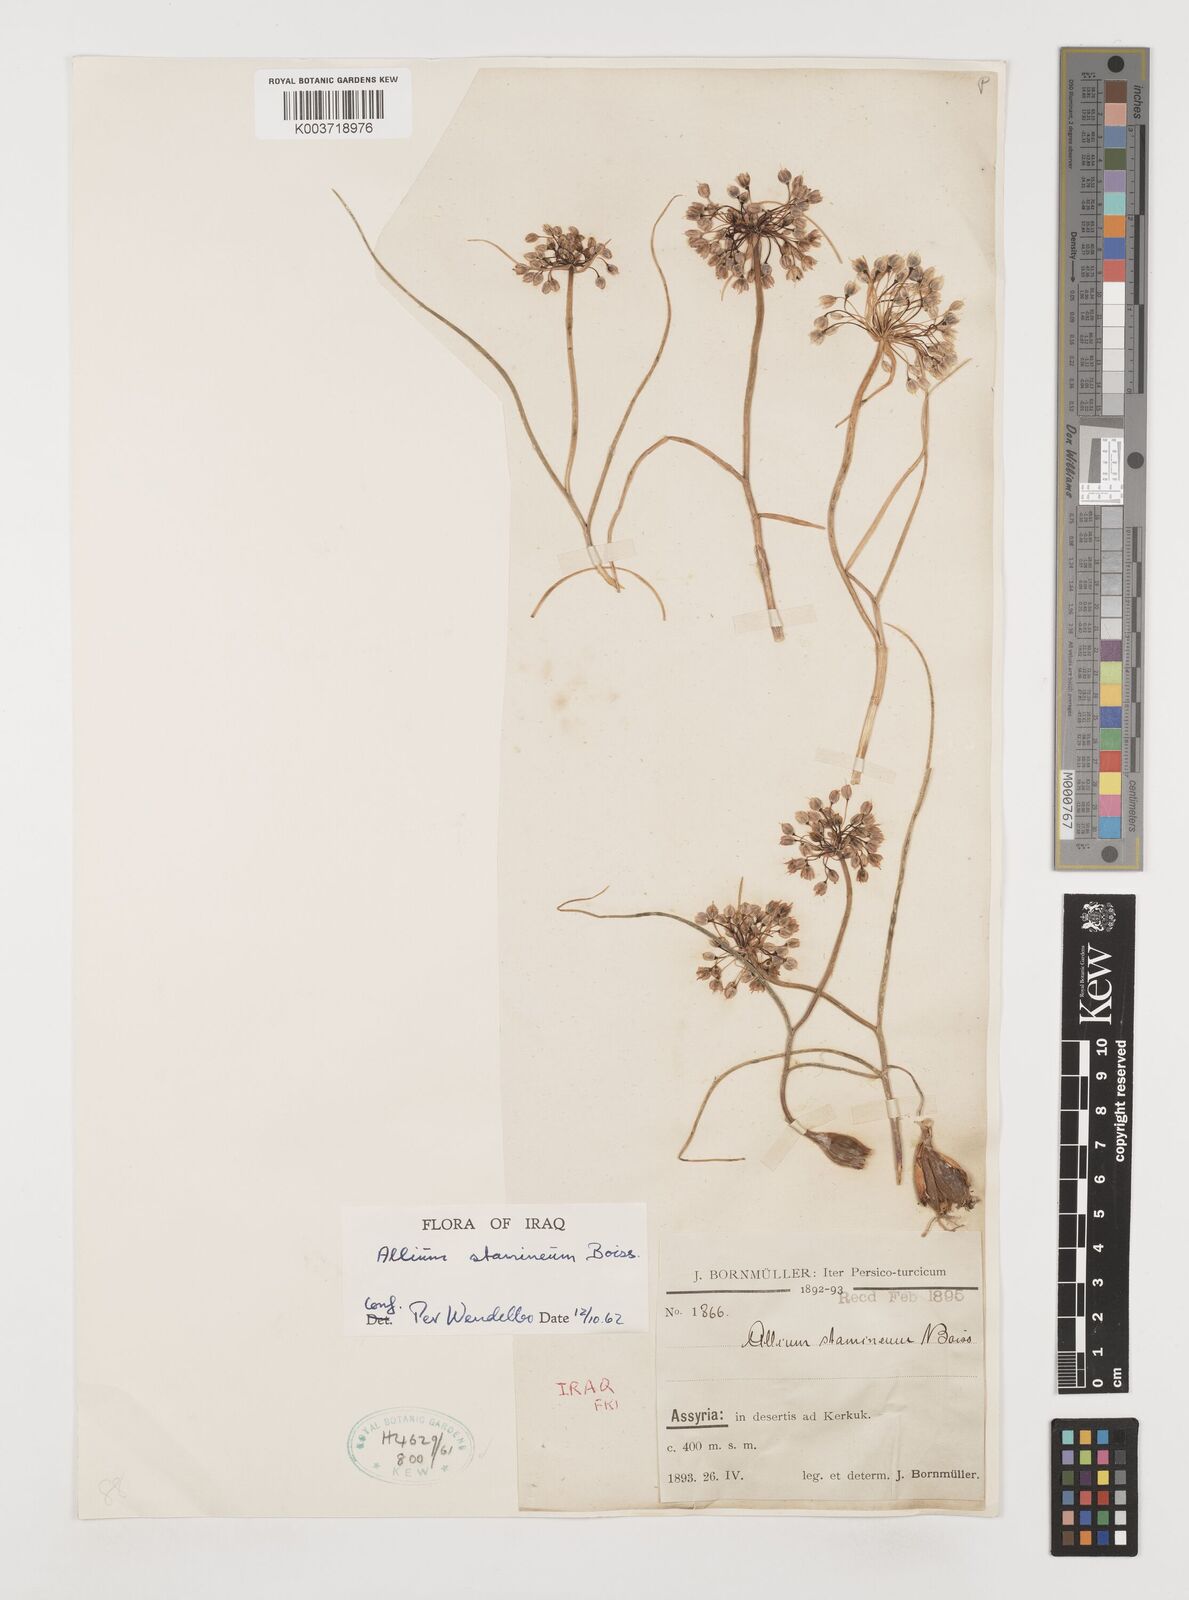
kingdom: Plantae
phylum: Tracheophyta
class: Liliopsida
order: Asparagales
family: Amaryllidaceae
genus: Allium
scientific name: Allium stamineum
